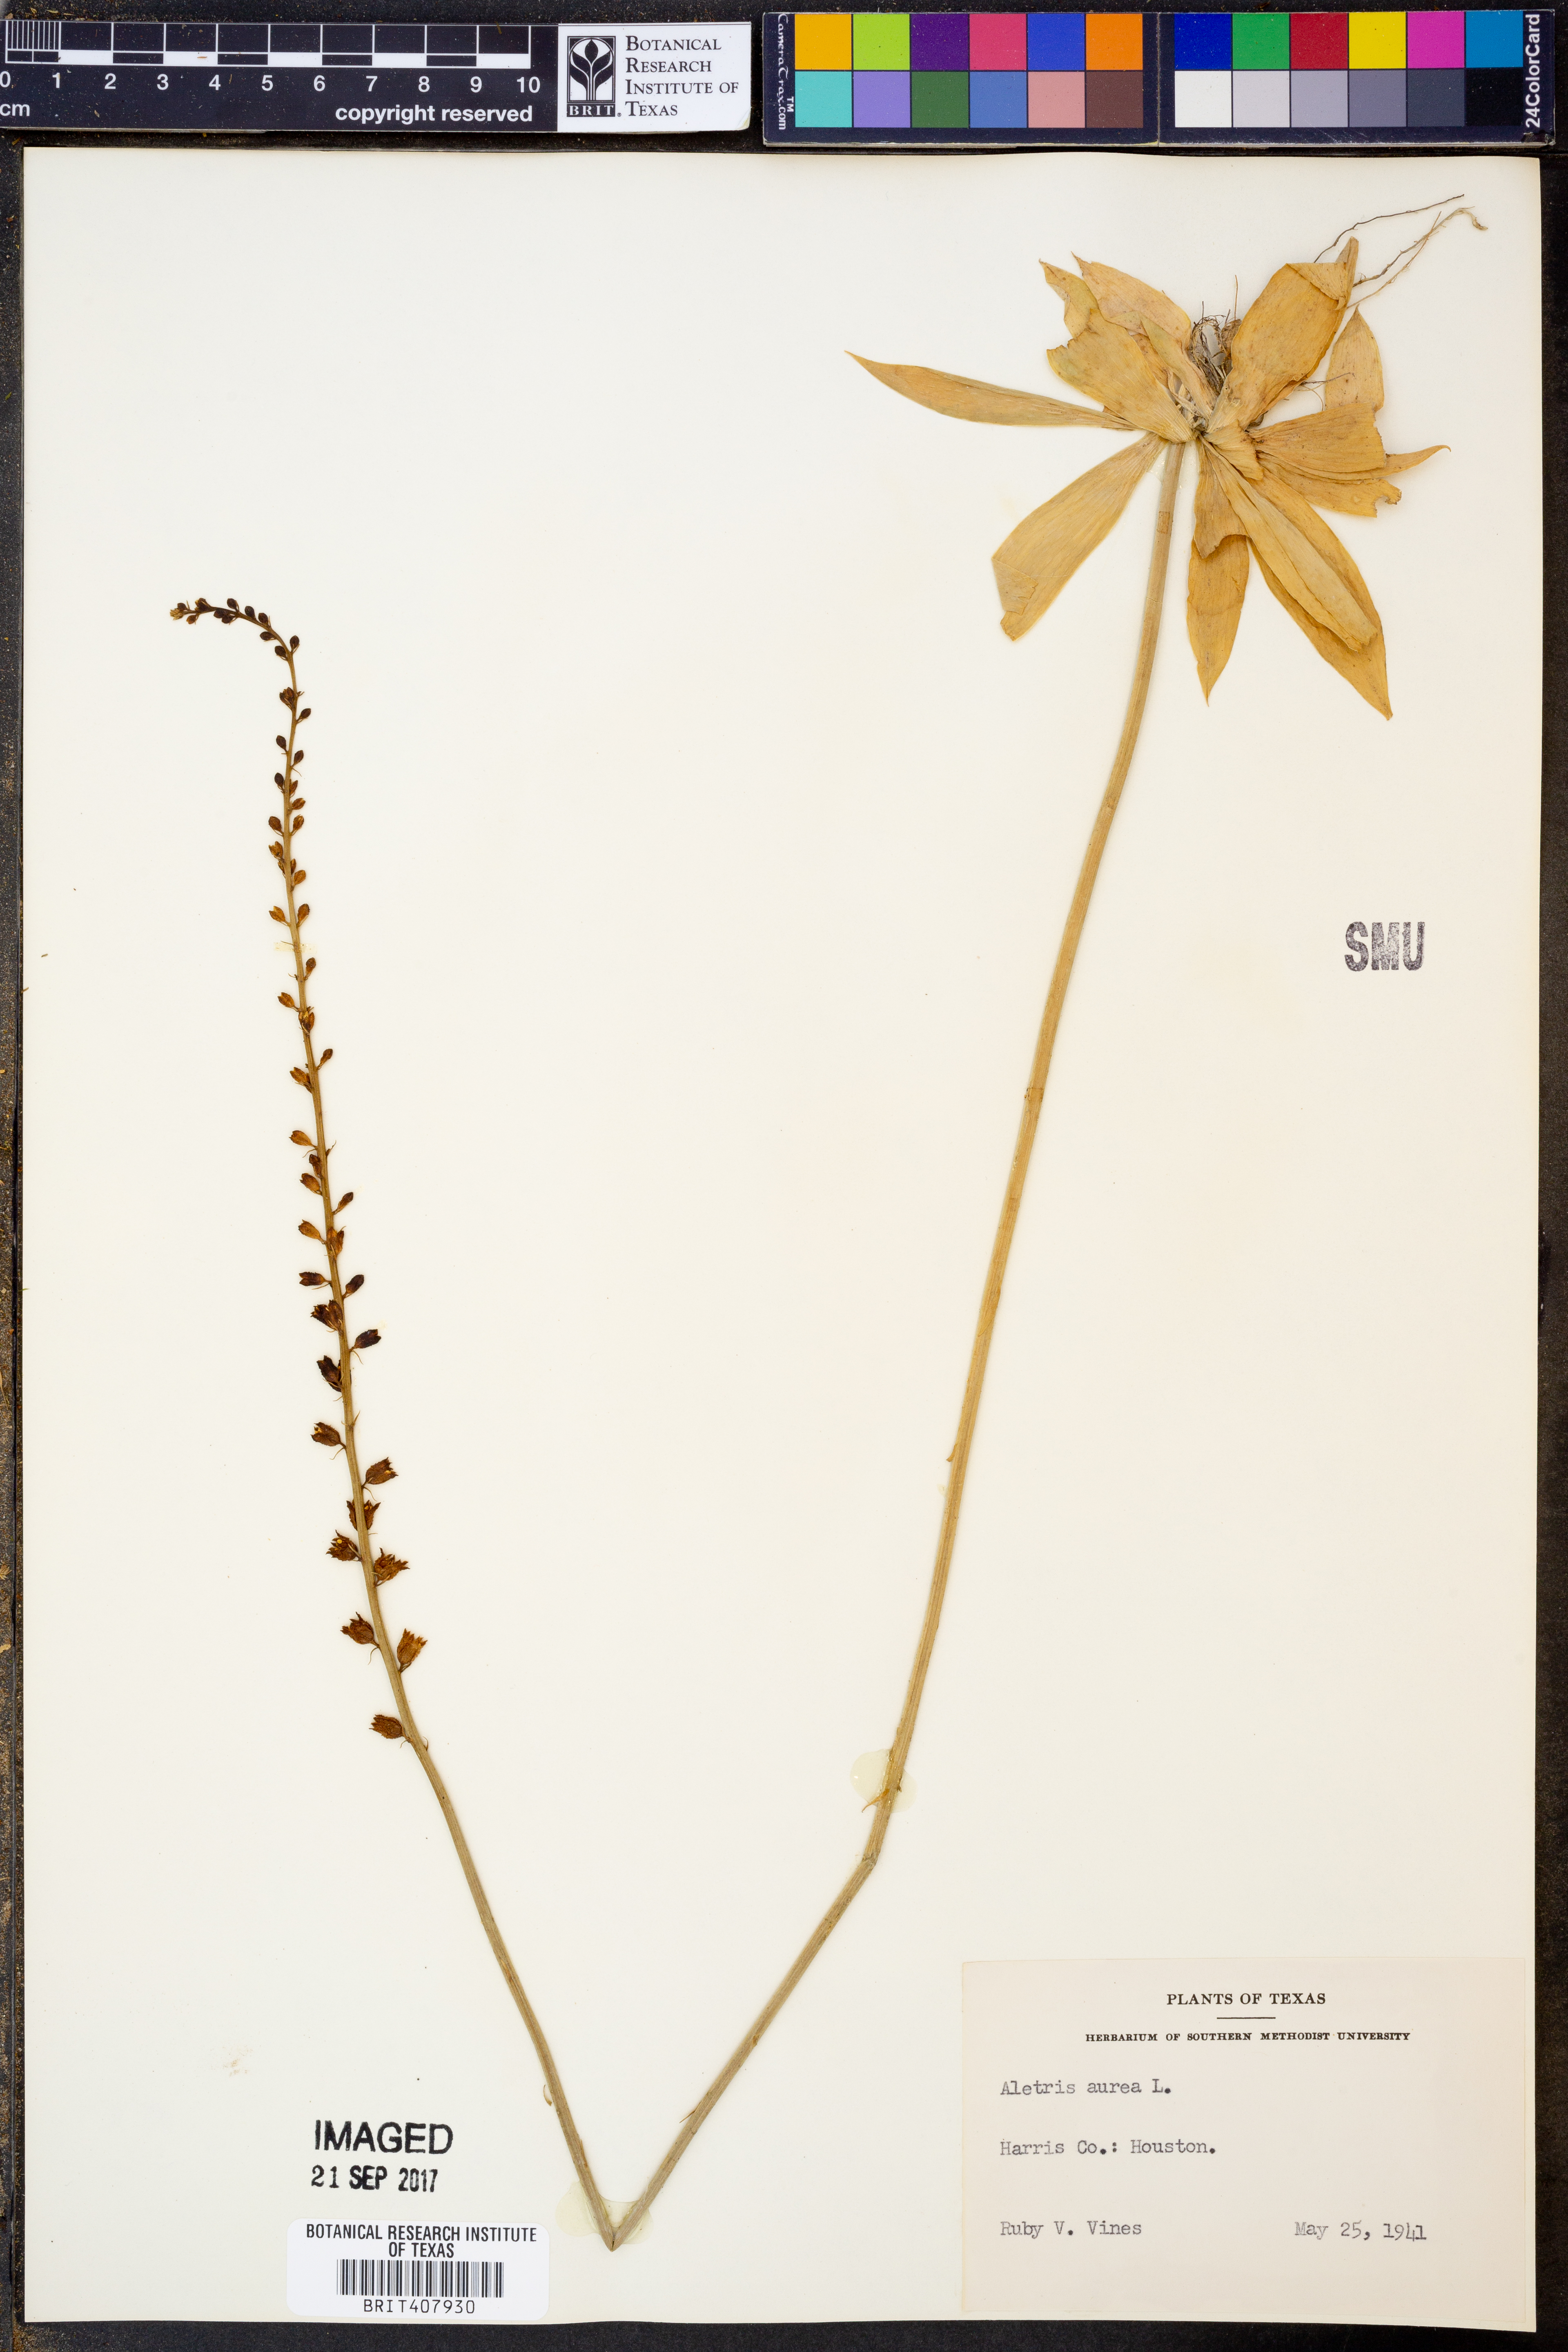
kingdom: Plantae
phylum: Tracheophyta
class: Liliopsida
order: Dioscoreales
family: Nartheciaceae
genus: Aletris
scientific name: Aletris aurea
